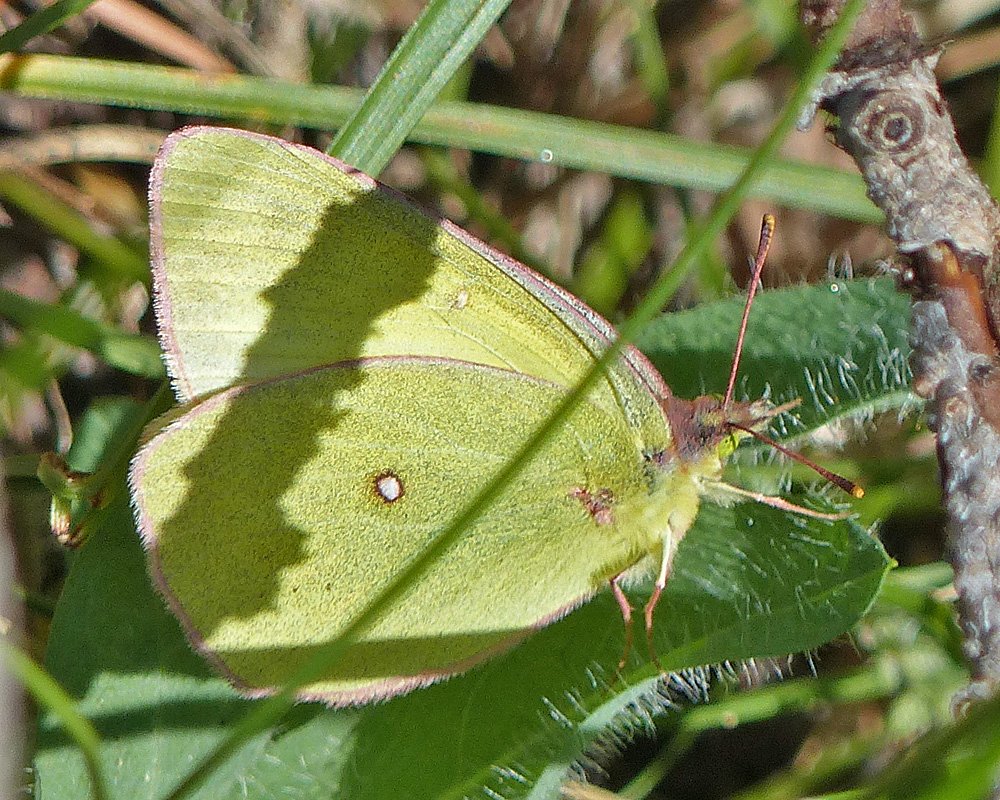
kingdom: Animalia
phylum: Arthropoda
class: Insecta
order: Lepidoptera
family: Pieridae
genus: Colias
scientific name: Colias occidentalis
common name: Western Sulphur
